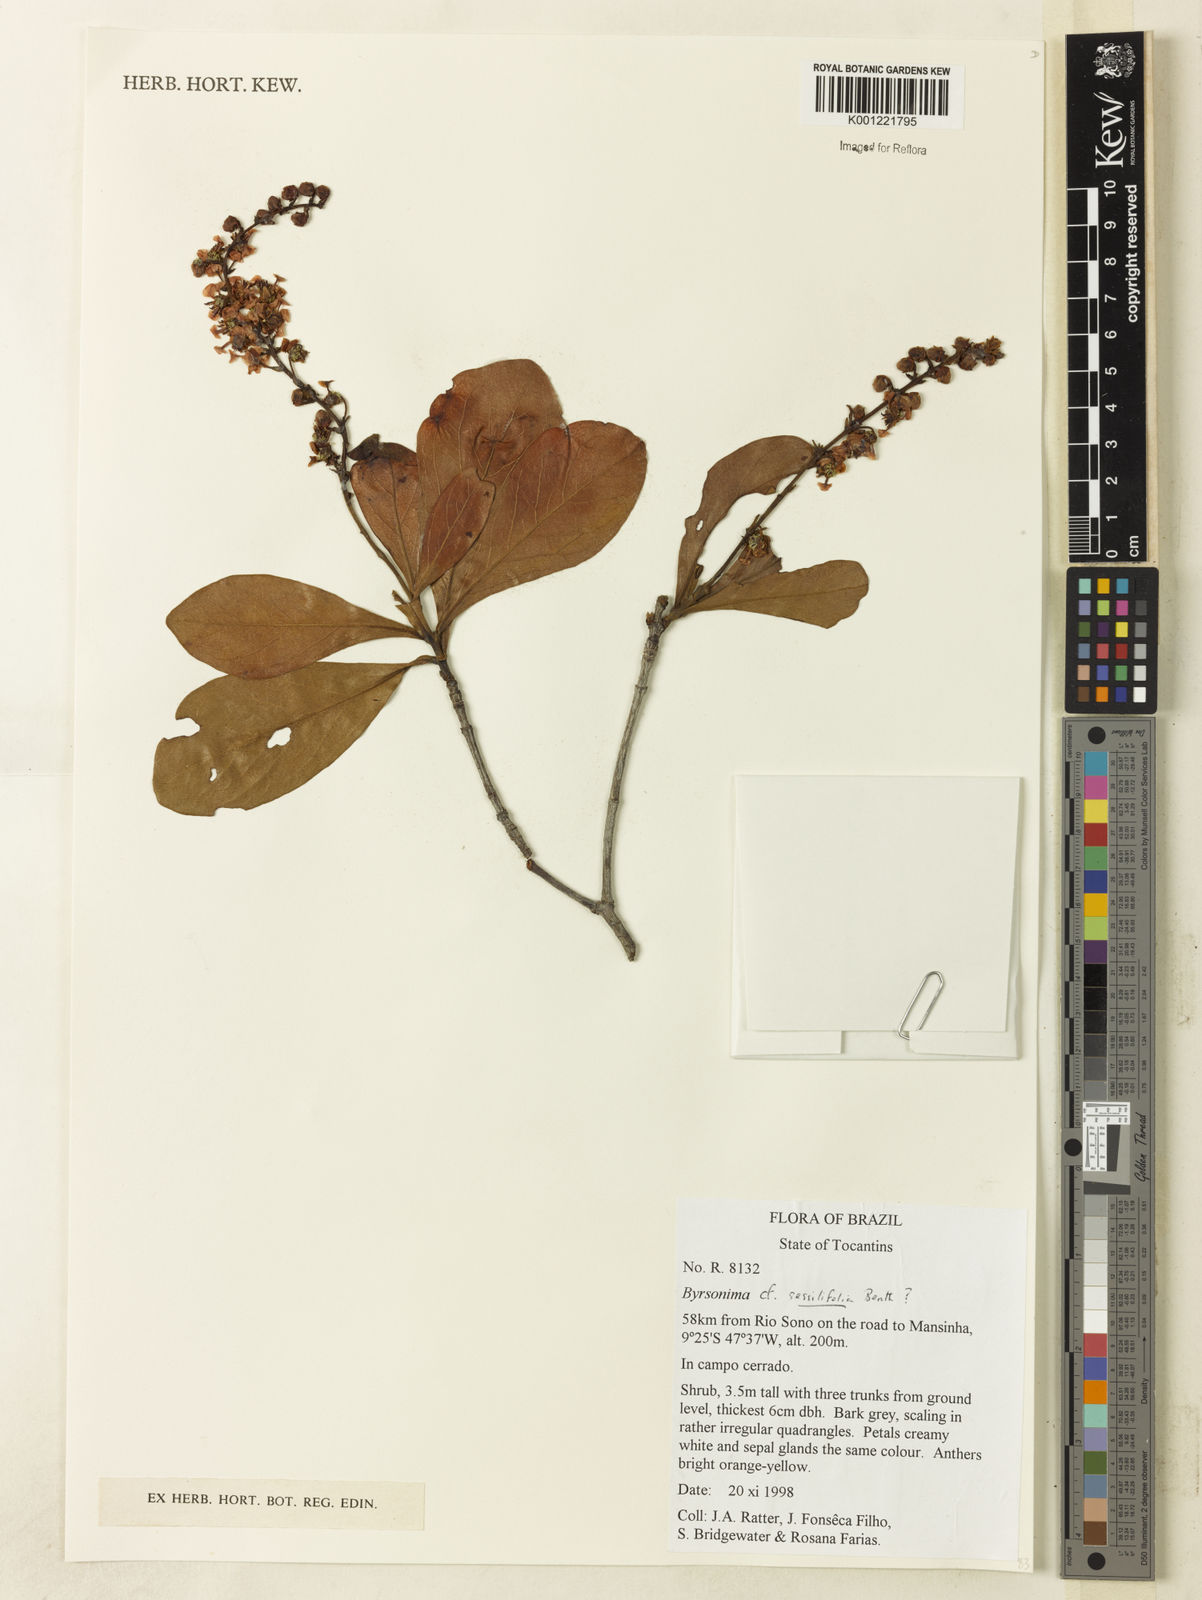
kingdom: Plantae
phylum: Tracheophyta
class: Magnoliopsida
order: Malpighiales
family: Malpighiaceae
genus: Byrsonima
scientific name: Byrsonima coccolobifolia
